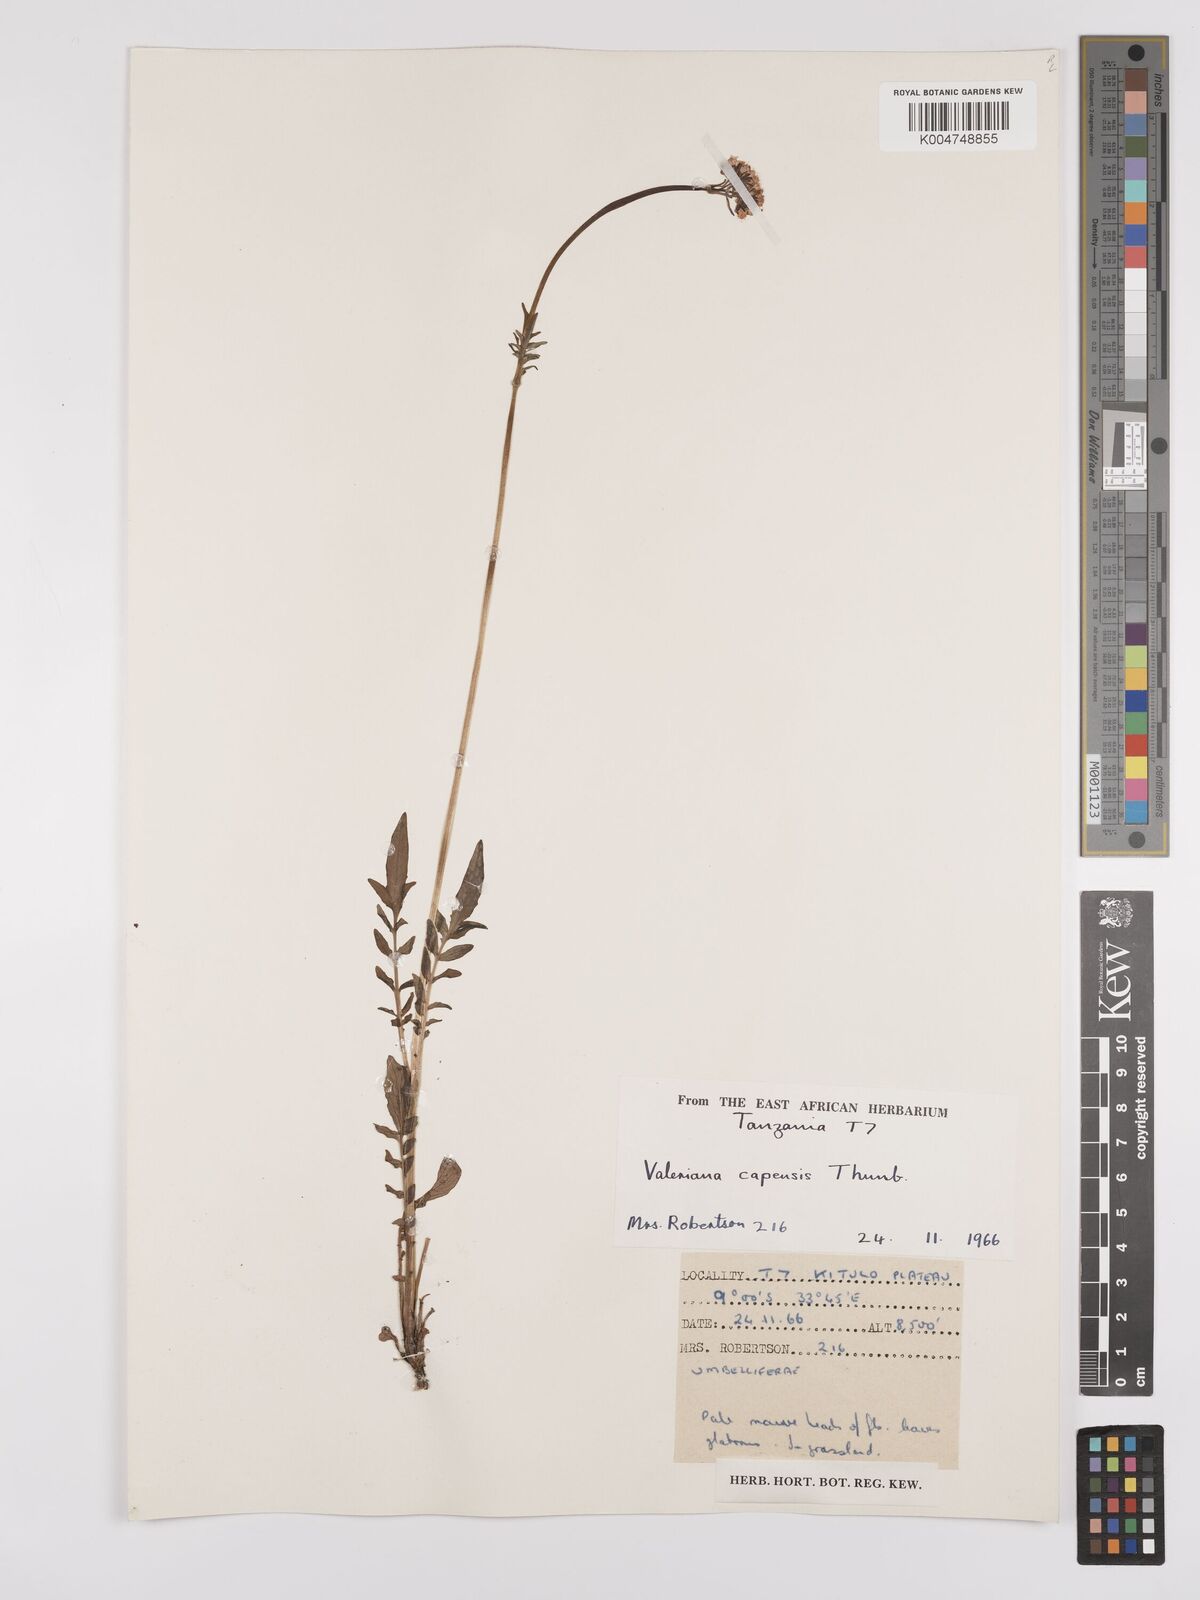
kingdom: Plantae
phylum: Tracheophyta
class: Magnoliopsida
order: Dipsacales
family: Caprifoliaceae
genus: Valeriana
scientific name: Valeriana capensis
